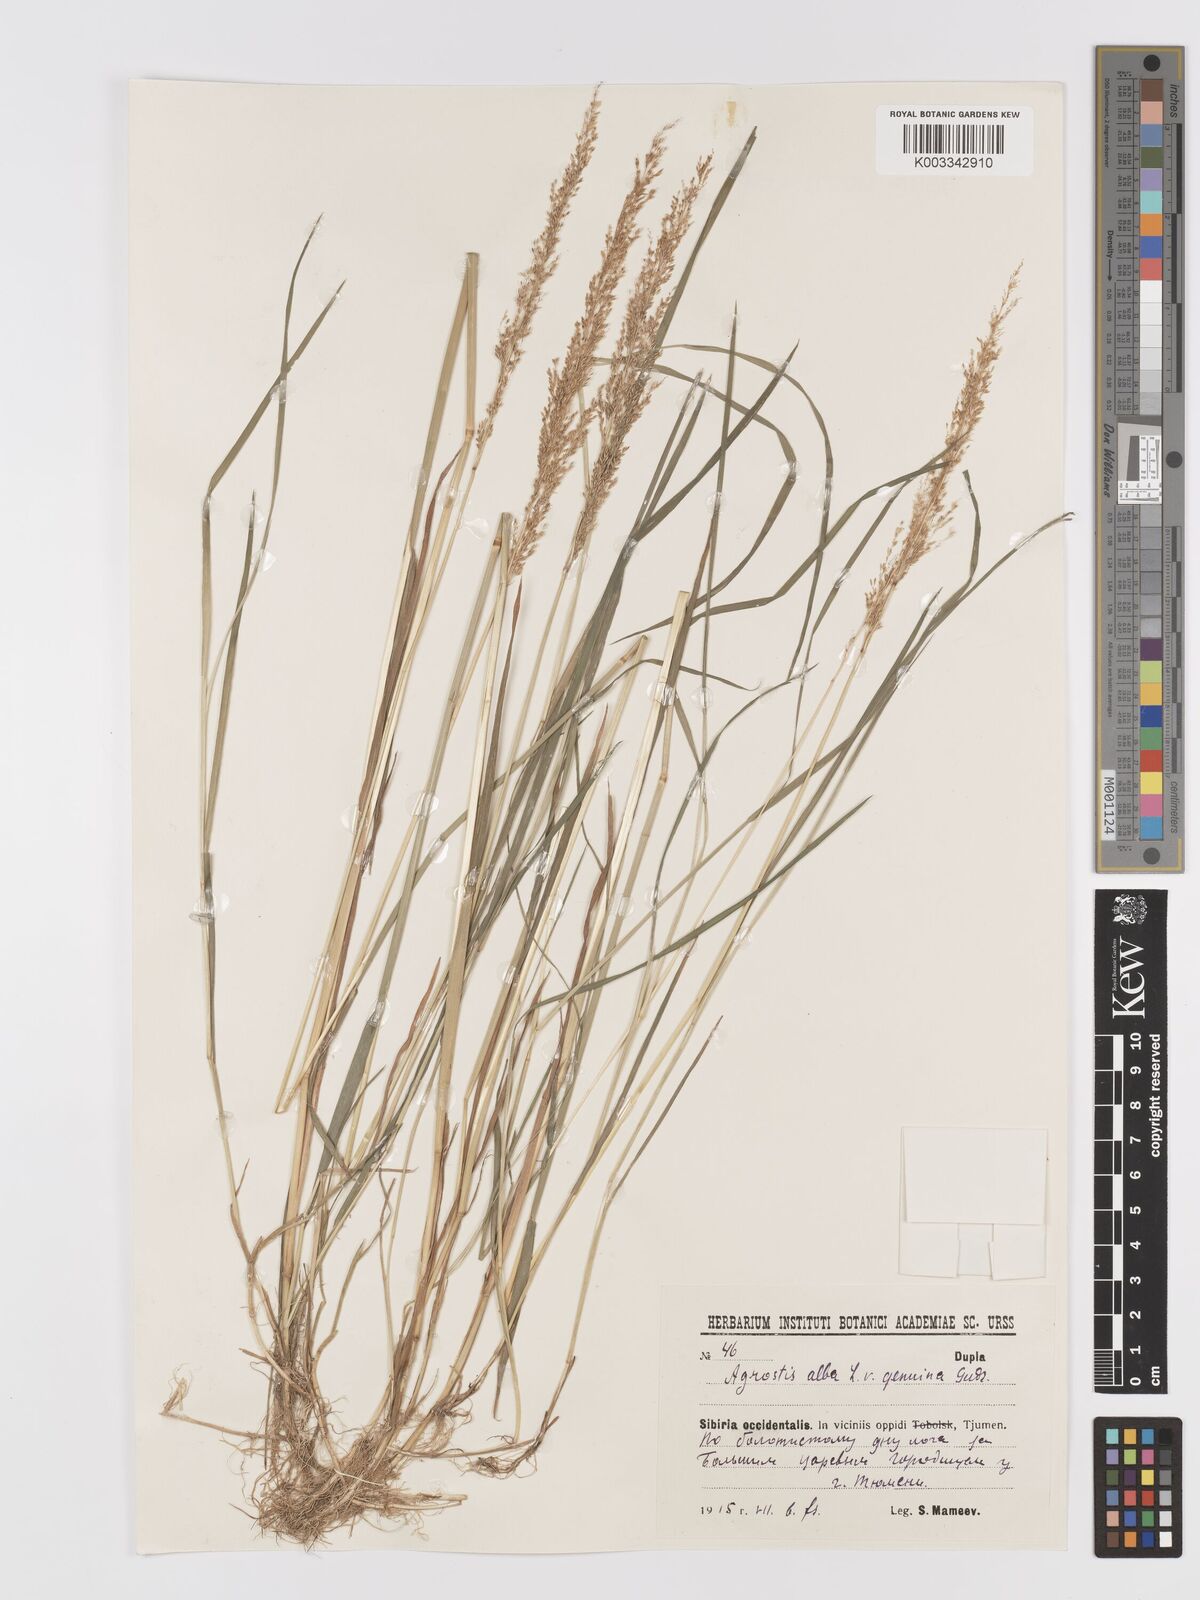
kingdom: Plantae
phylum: Tracheophyta
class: Liliopsida
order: Poales
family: Poaceae
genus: Agrostis
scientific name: Agrostis gigantea
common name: Black bent
